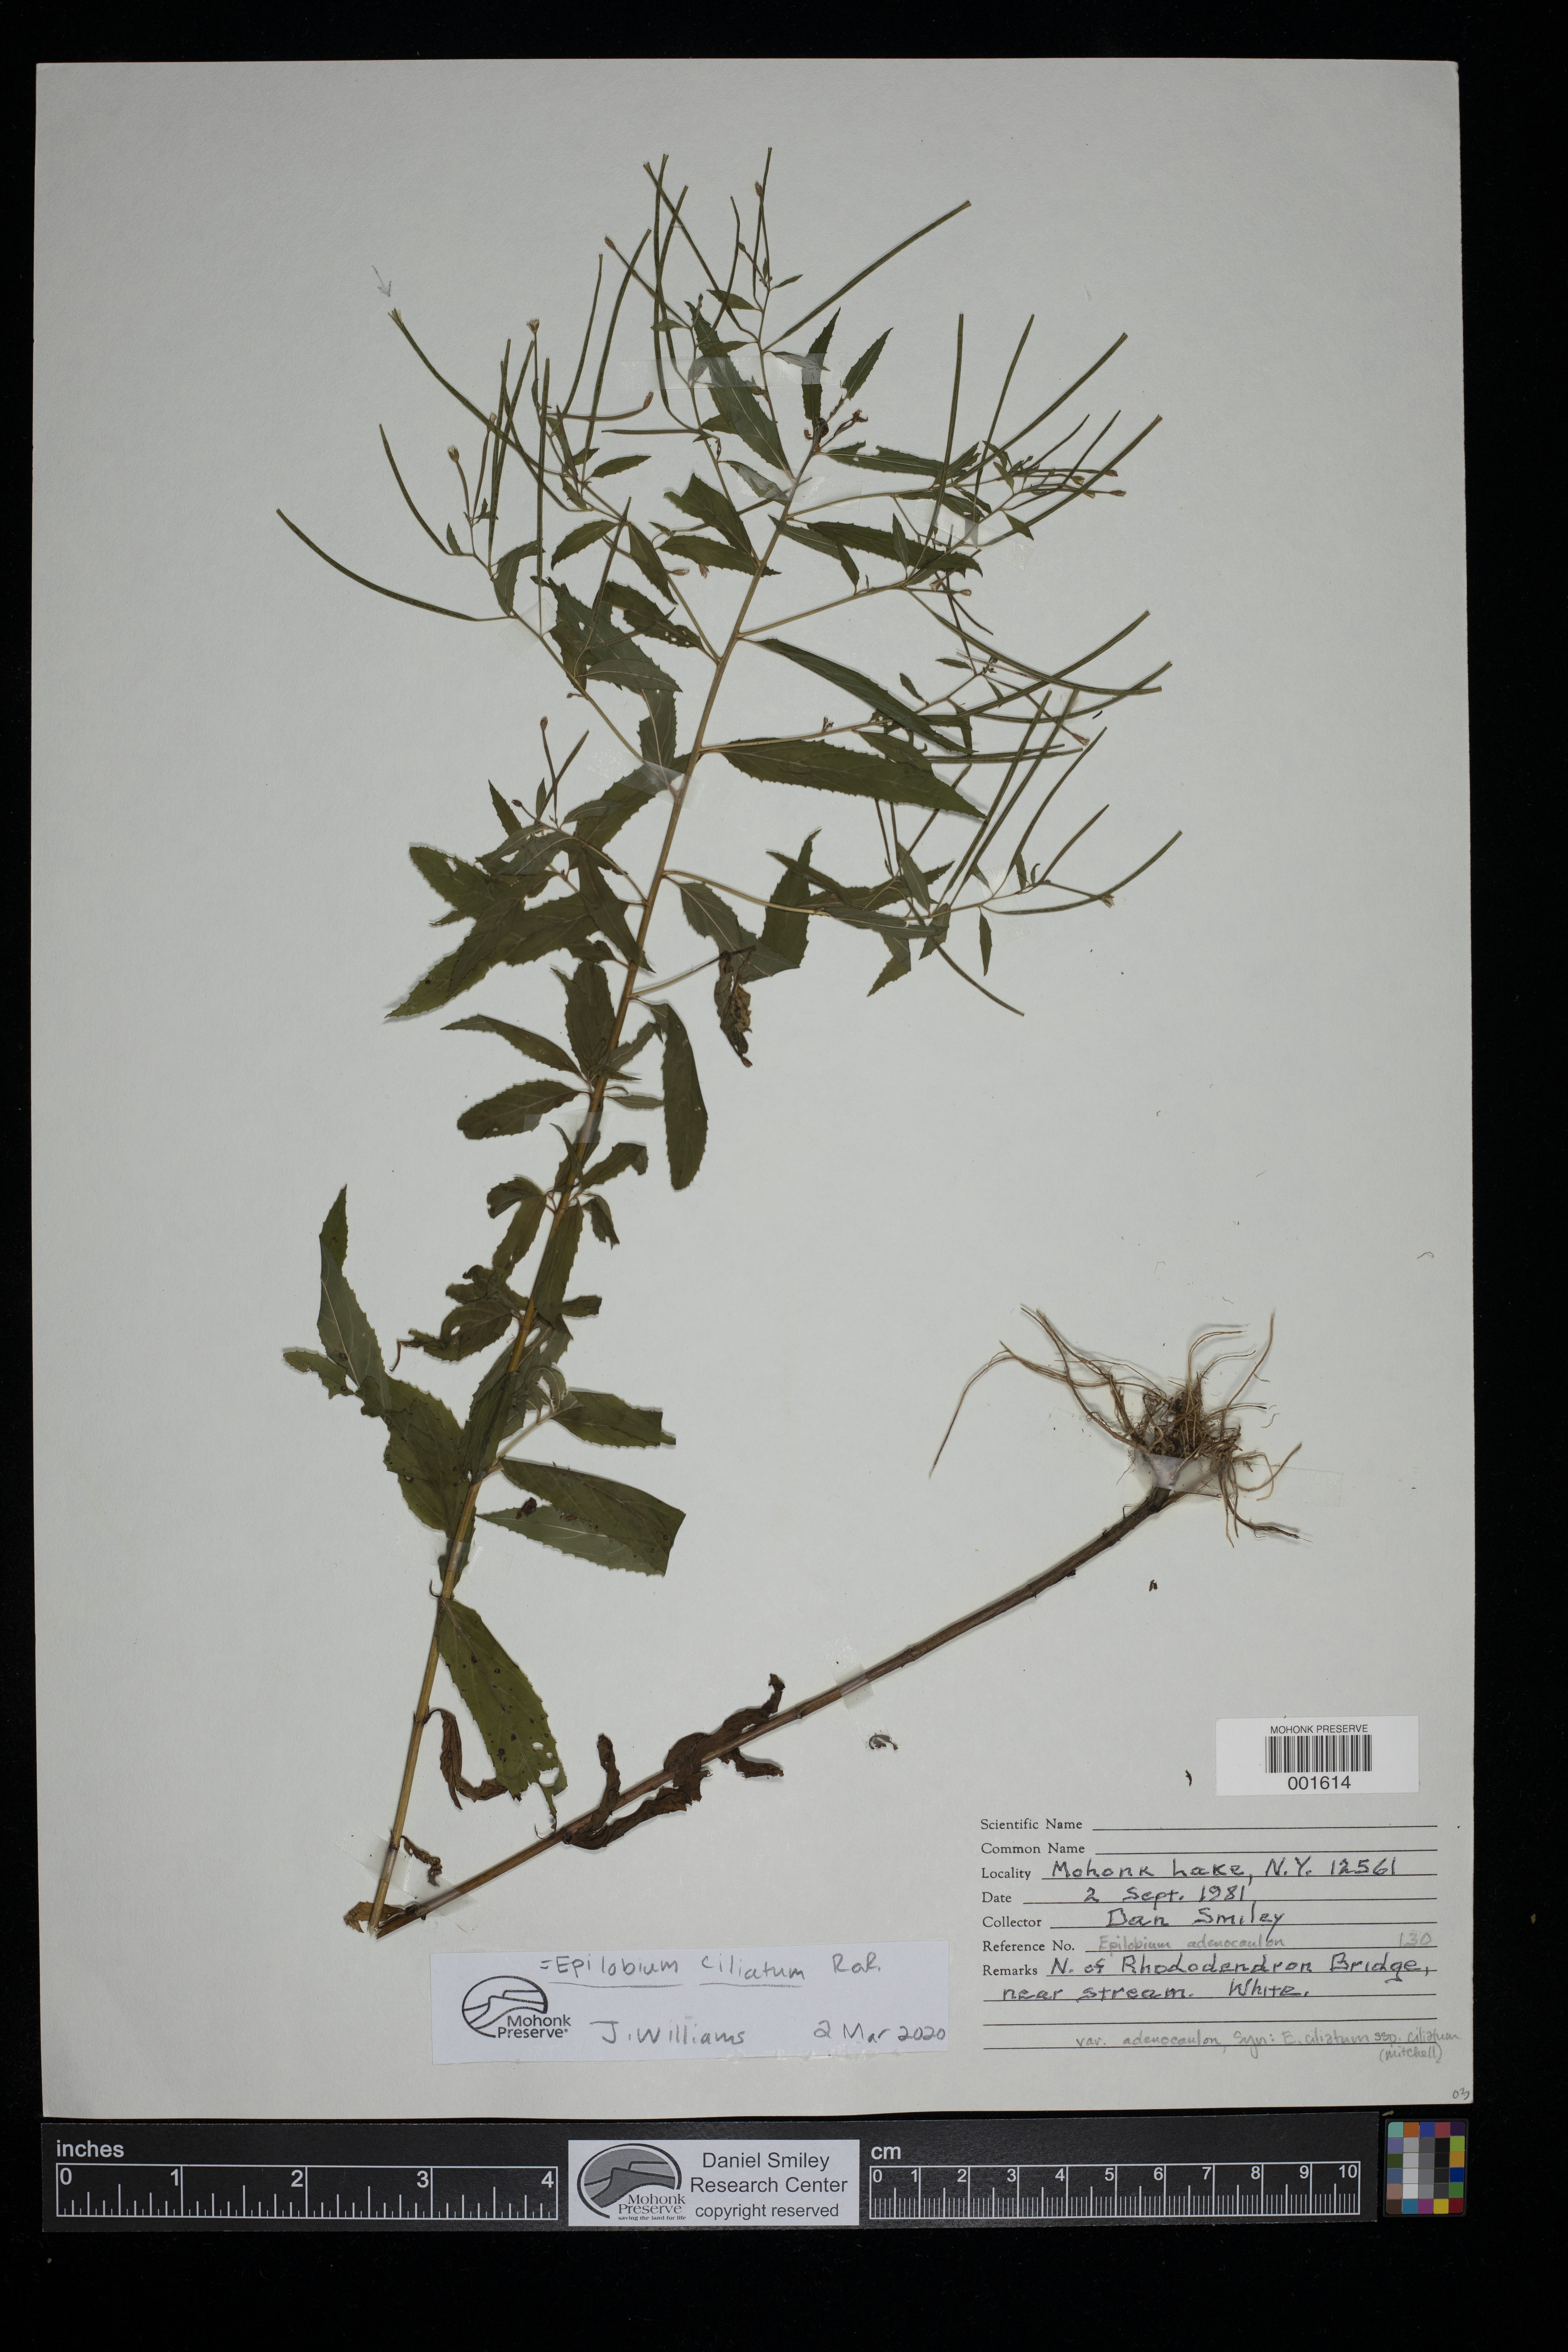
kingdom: Plantae
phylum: Tracheophyta
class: Magnoliopsida
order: Myrtales
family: Onagraceae
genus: Epilobium
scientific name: Epilobium ciliatum
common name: American willowherb
